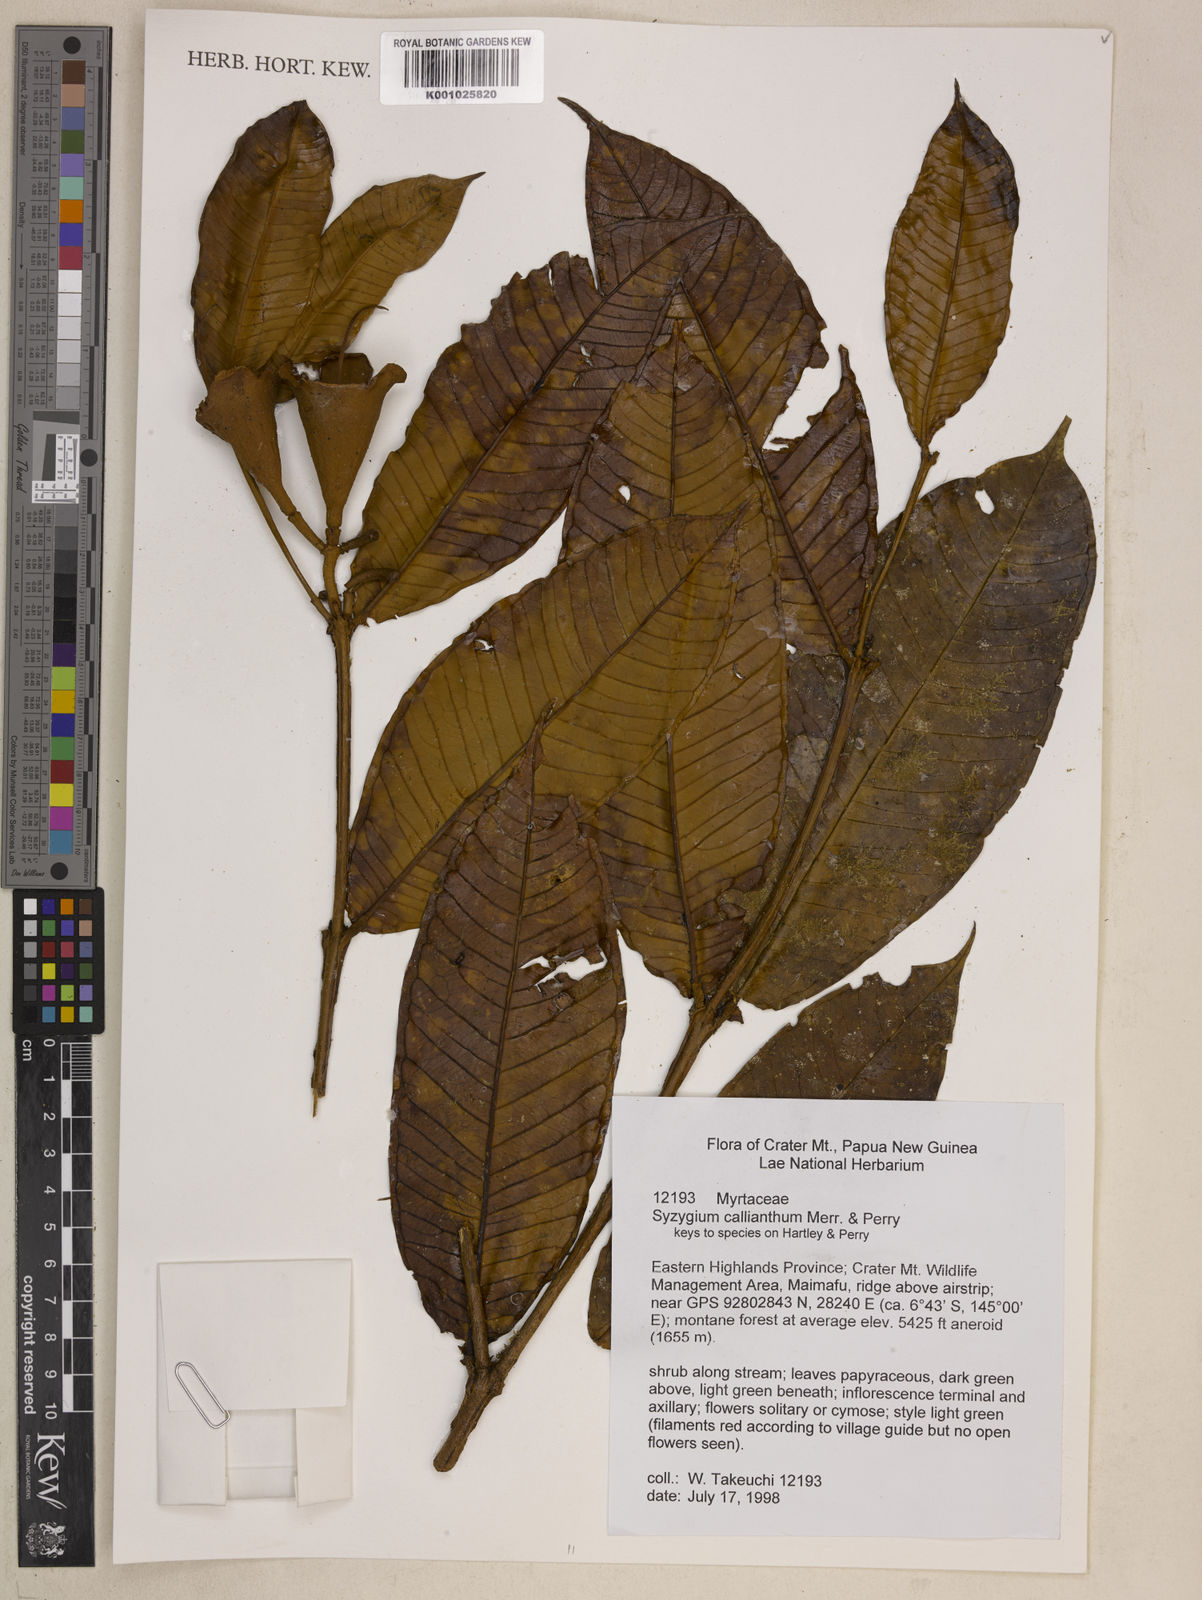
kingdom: Plantae
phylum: Tracheophyta
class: Magnoliopsida
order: Myrtales
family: Myrtaceae
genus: Syzygium
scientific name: Syzygium callianthum
